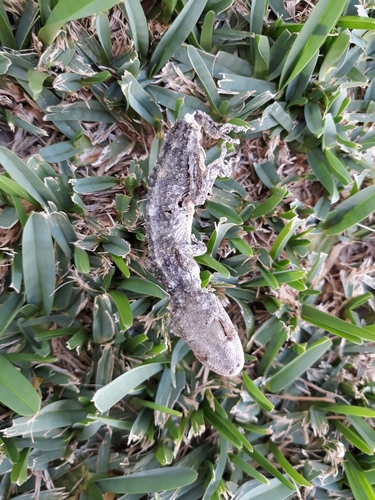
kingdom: Animalia
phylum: Chordata
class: Squamata
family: Phyllodactylidae
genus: Tarentola
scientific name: Tarentola mauritanica
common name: Moorish gecko
